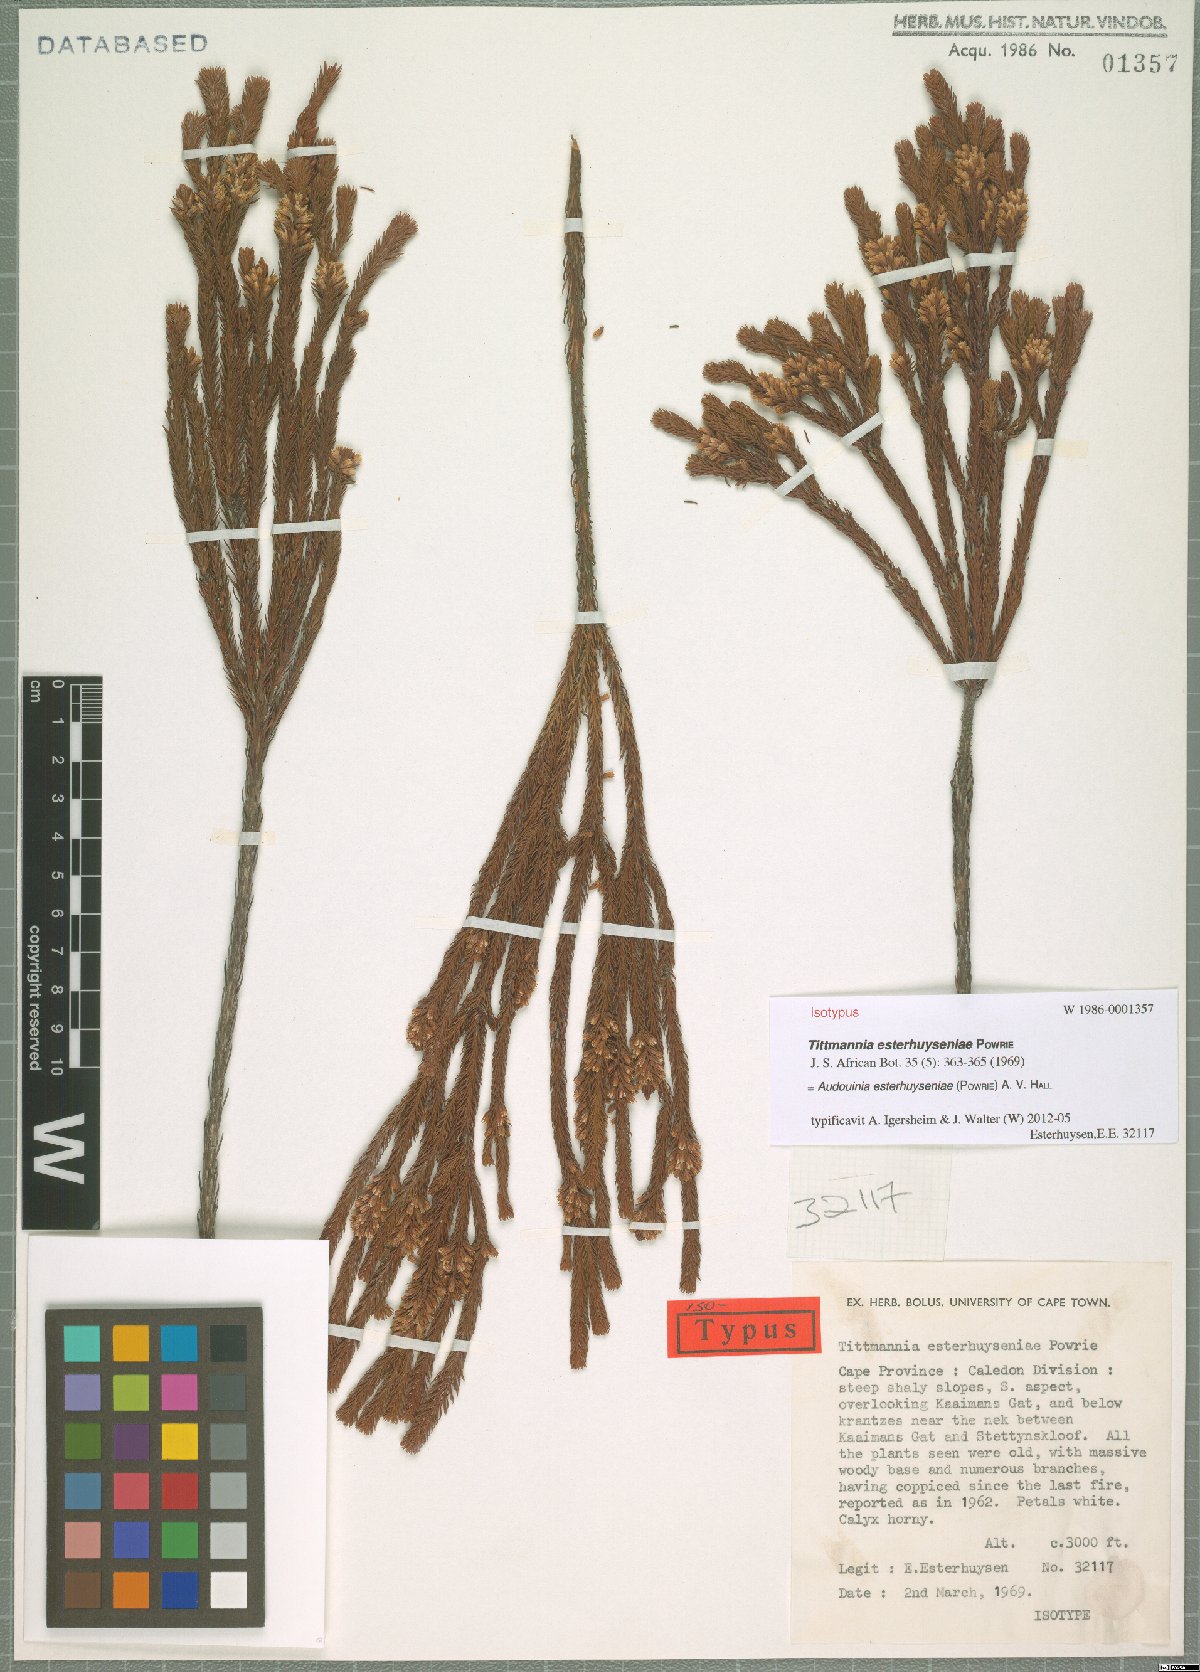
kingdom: Plantae
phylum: Tracheophyta
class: Magnoliopsida
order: Bruniales
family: Bruniaceae
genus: Audouinia
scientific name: Audouinia esterhuyseniae
